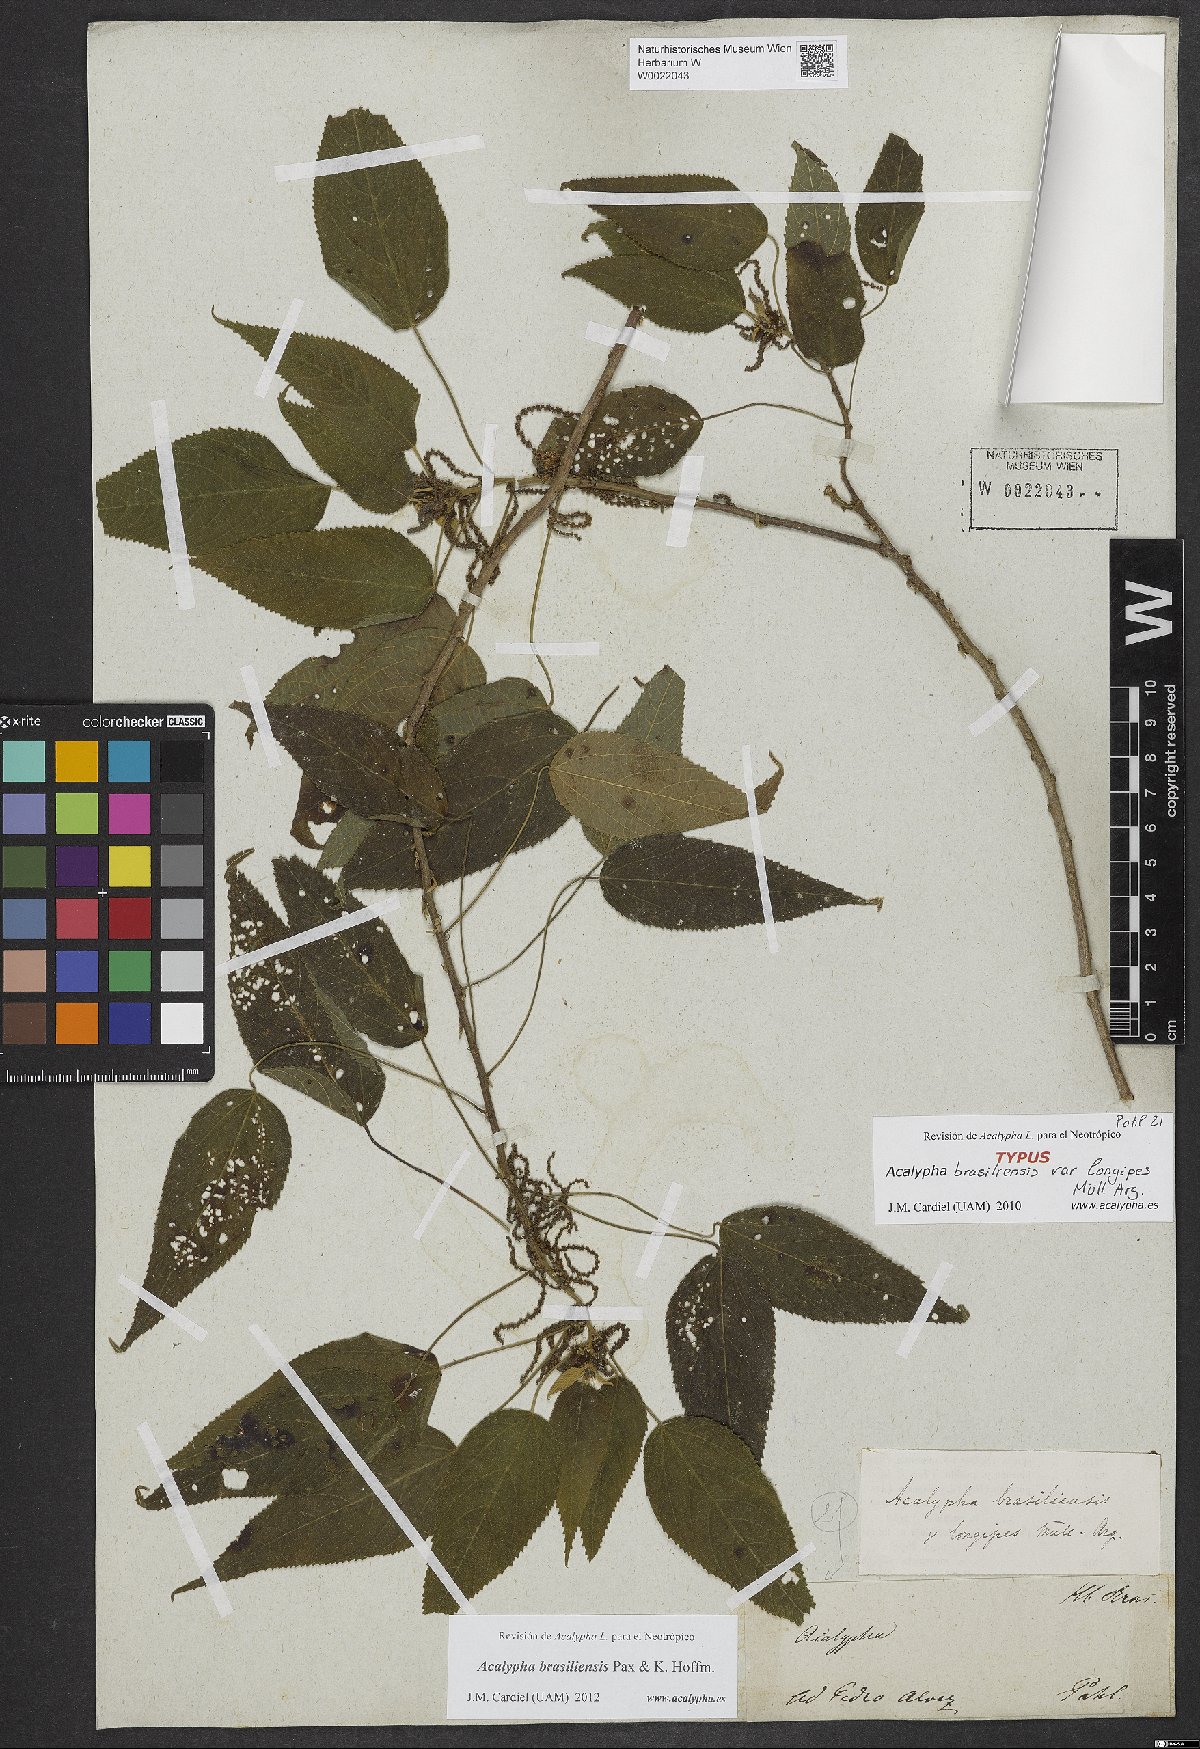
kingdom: Plantae
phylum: Tracheophyta
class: Magnoliopsida
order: Malpighiales
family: Euphorbiaceae
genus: Acalypha
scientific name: Acalypha brasiliensis
